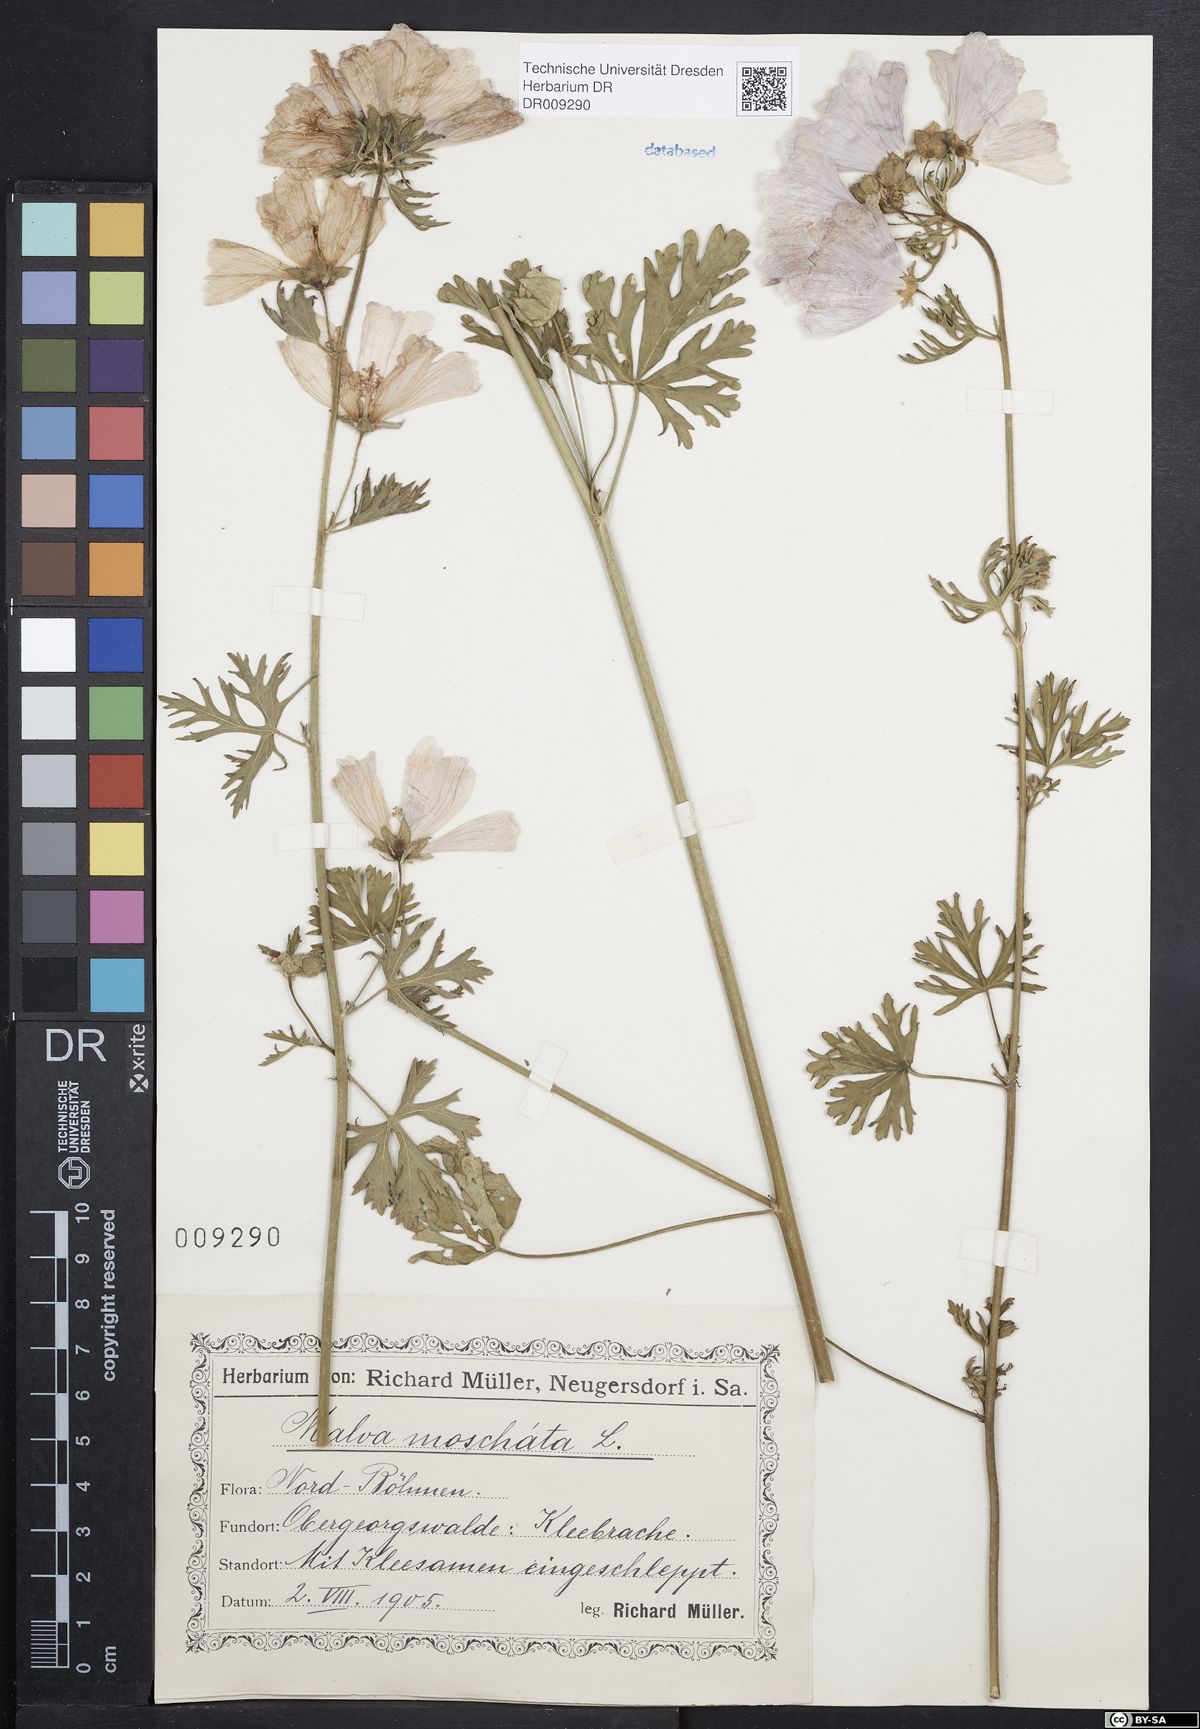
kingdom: Plantae
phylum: Tracheophyta
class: Magnoliopsida
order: Malvales
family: Malvaceae
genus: Malva
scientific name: Malva moschata
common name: Musk mallow
